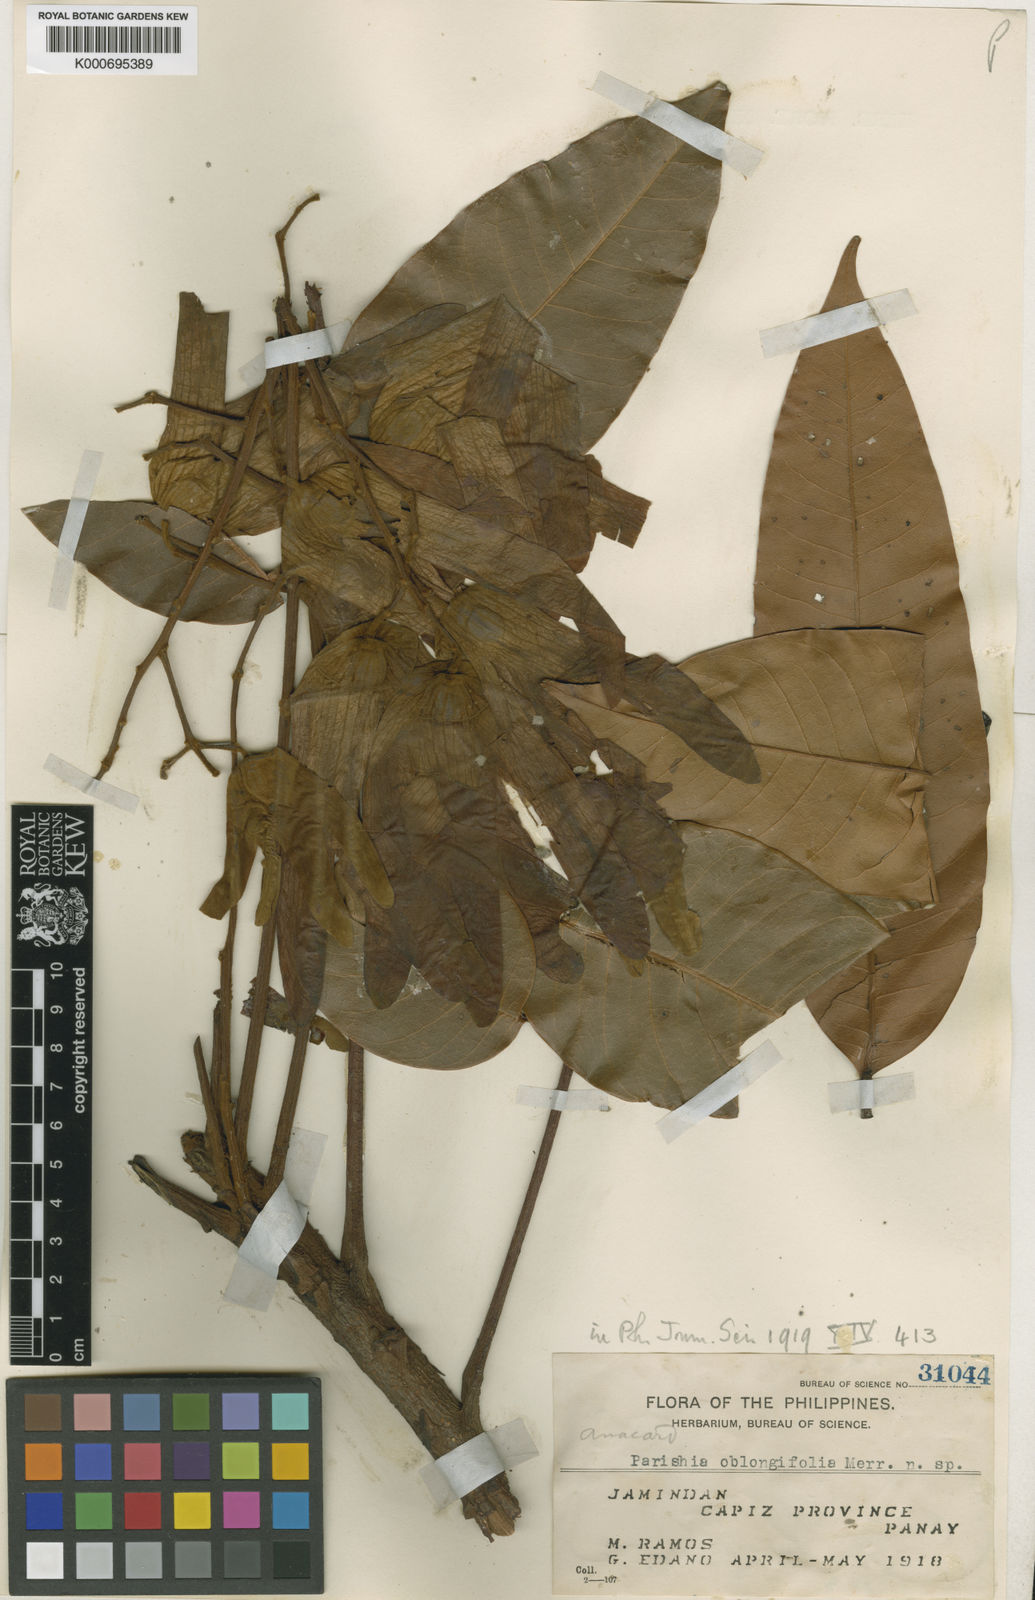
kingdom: Plantae
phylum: Tracheophyta
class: Magnoliopsida
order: Sapindales
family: Anacardiaceae
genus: Parishia
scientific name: Parishia maingayi
